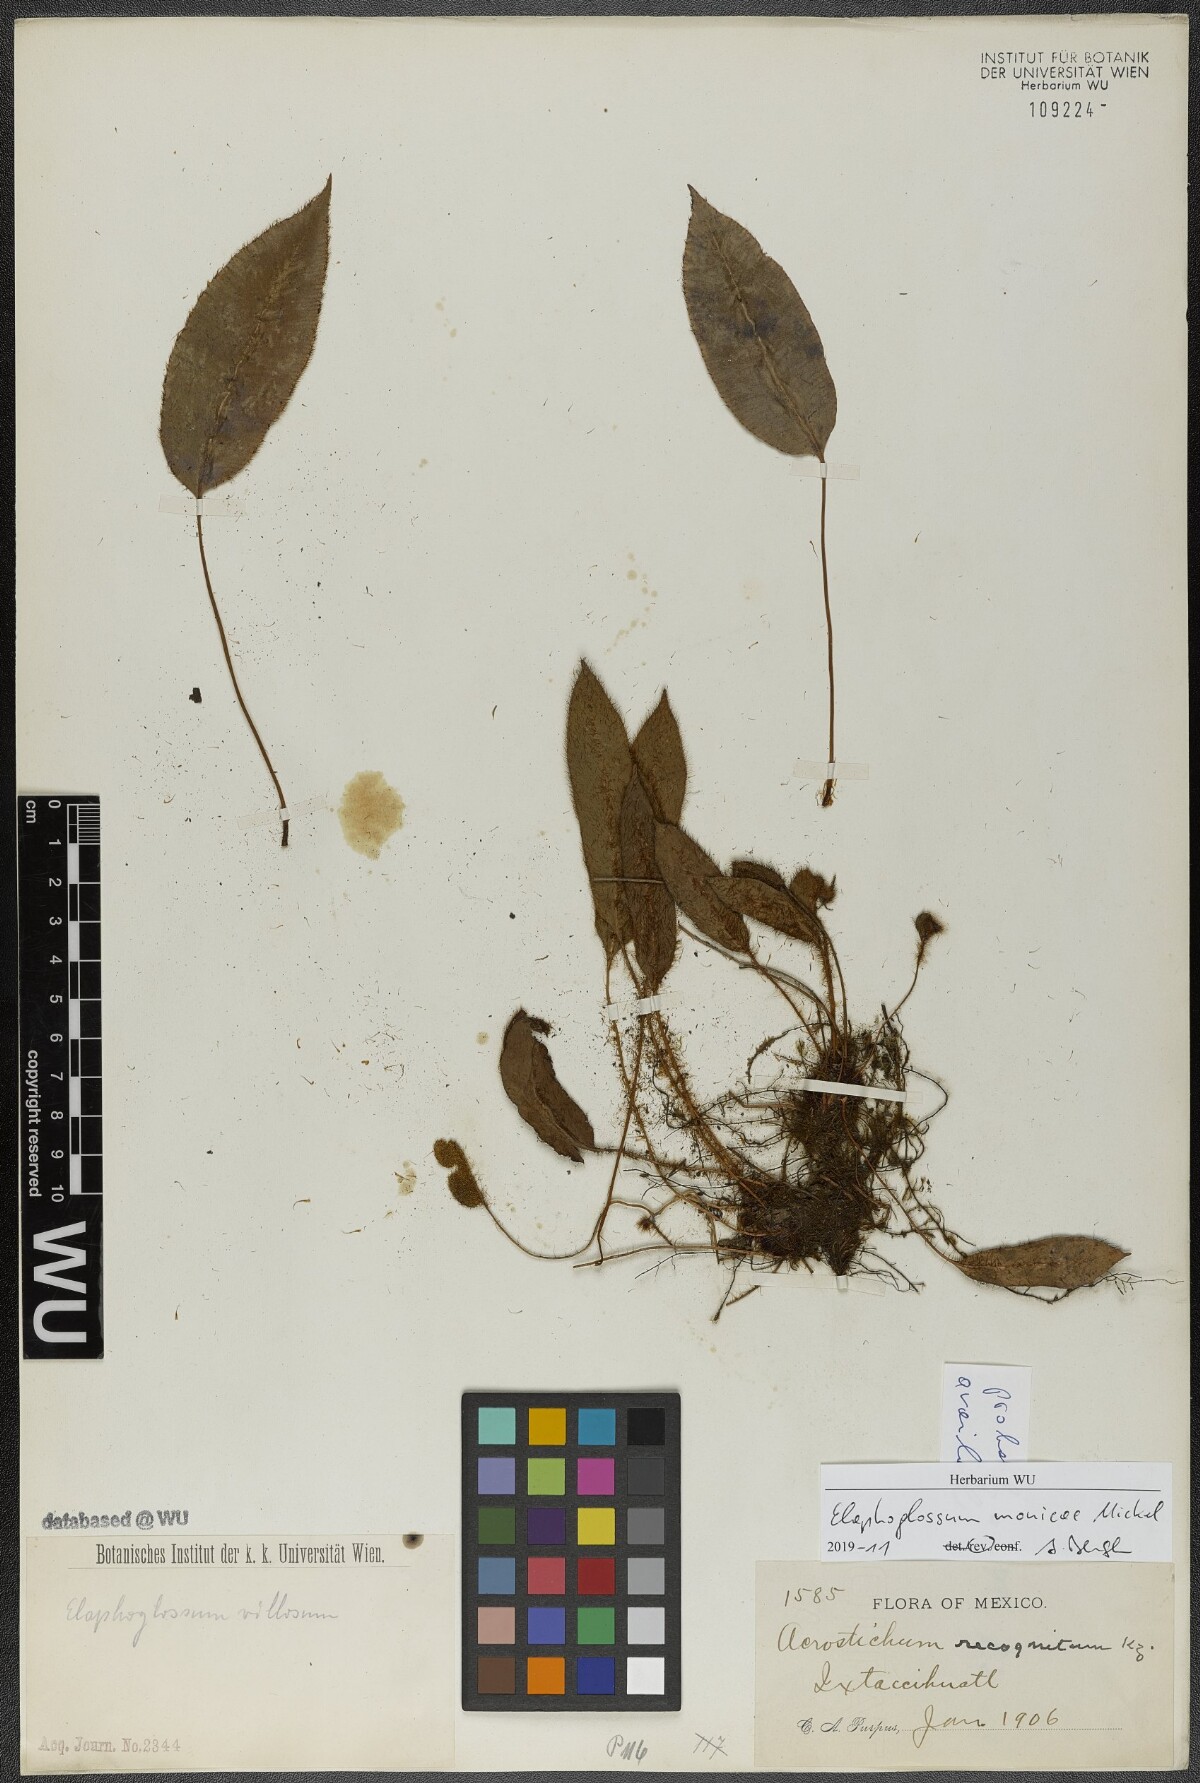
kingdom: Plantae
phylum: Tracheophyta
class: Polypodiopsida
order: Polypodiales
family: Dryopteridaceae
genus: Elaphoglossum
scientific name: Elaphoglossum monicae
